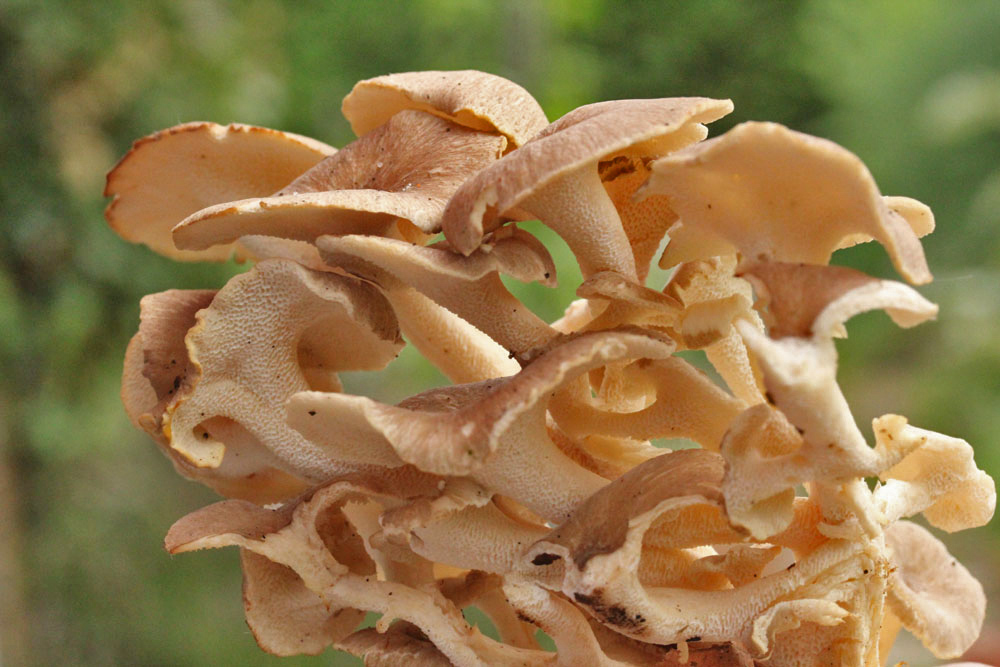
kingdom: Fungi
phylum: Basidiomycota
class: Agaricomycetes
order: Polyporales
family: Polyporaceae
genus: Polyporus
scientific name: Polyporus umbellatus
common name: skærmformet stilkporesvamp
